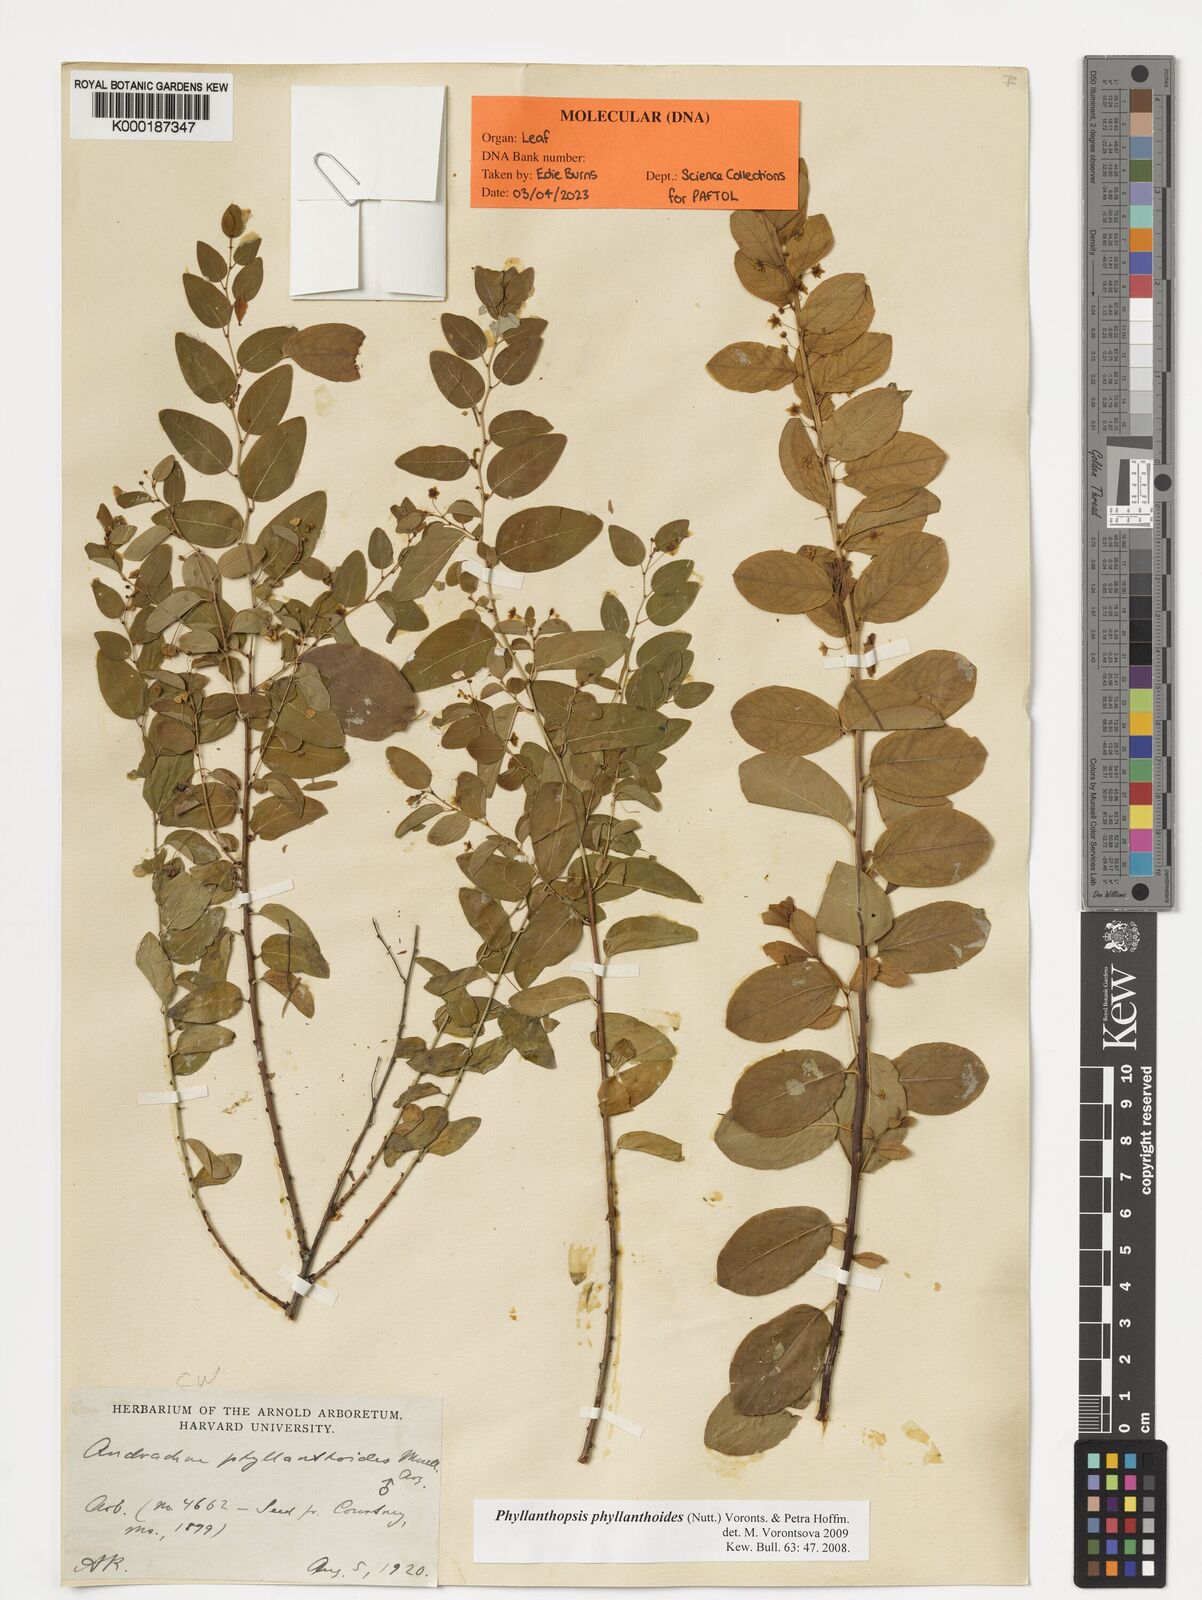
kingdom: Plantae
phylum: Tracheophyta
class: Magnoliopsida
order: Malpighiales
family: Phyllanthaceae
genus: Andrachne
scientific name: Andrachne
